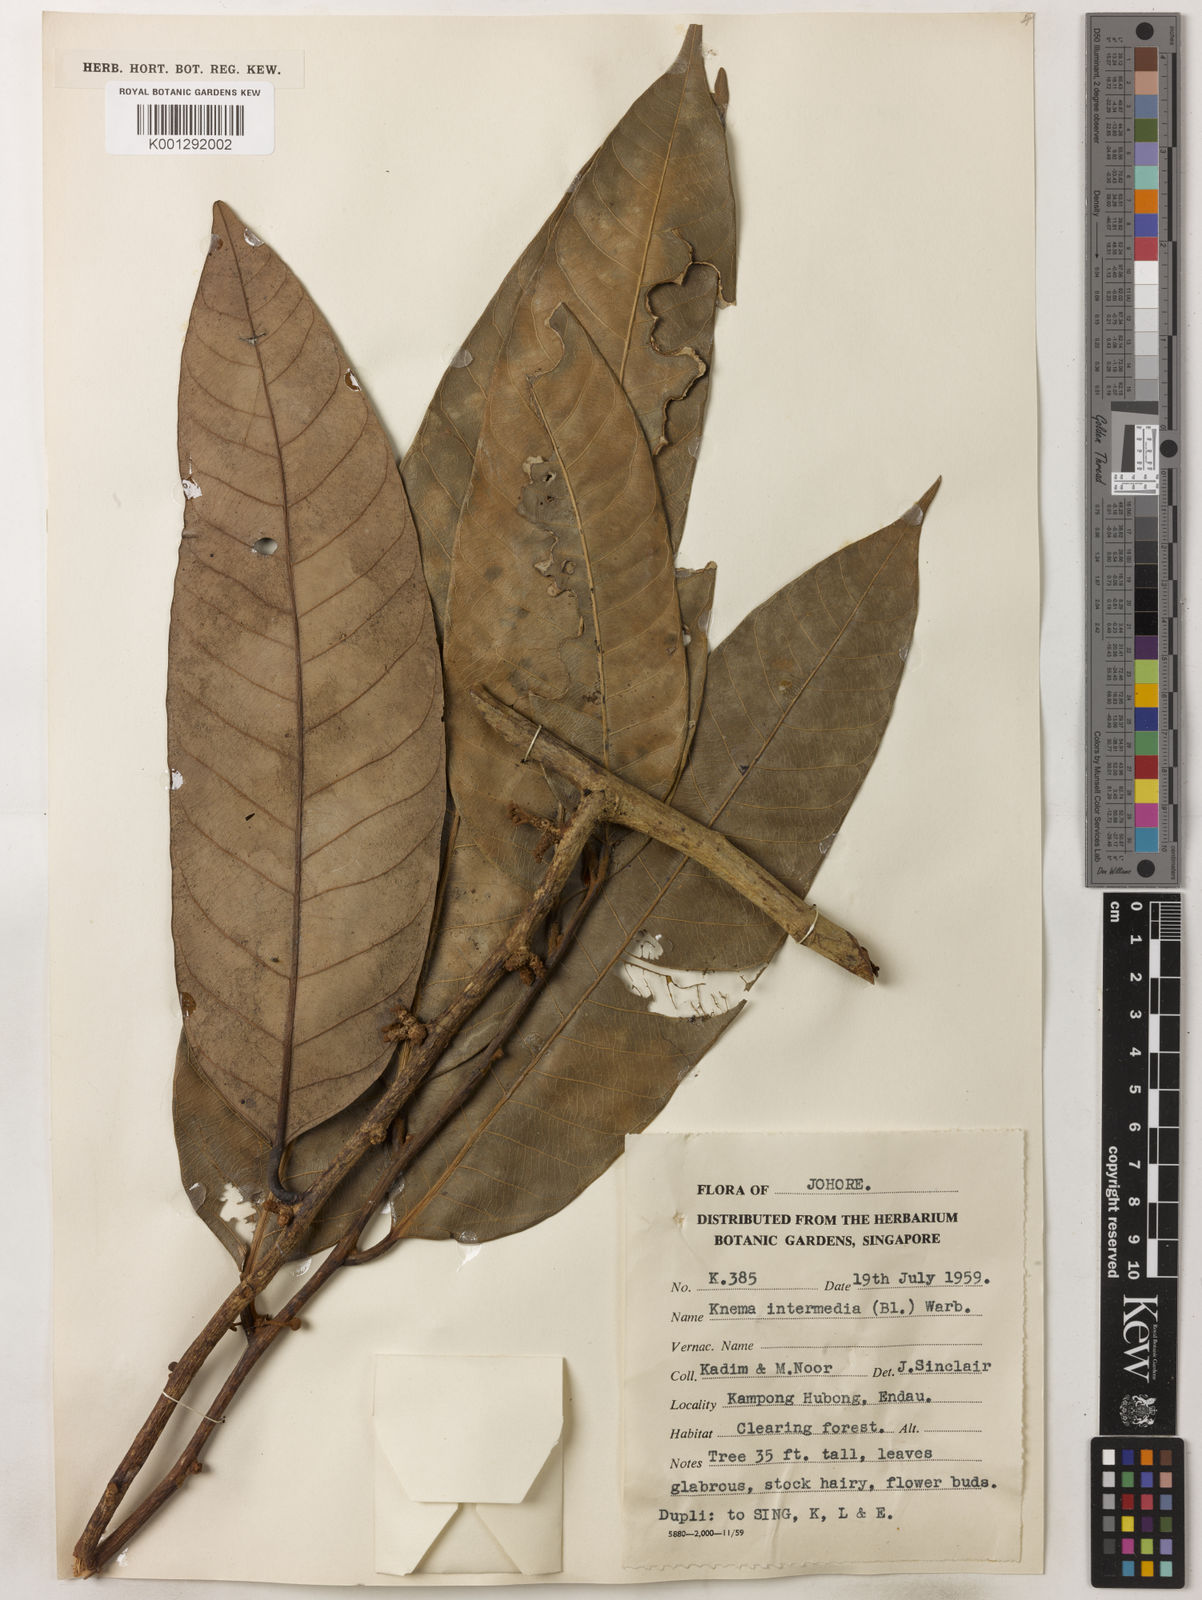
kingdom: Plantae
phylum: Tracheophyta
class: Magnoliopsida
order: Magnoliales
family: Myristicaceae
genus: Knema
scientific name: Knema intermedia
